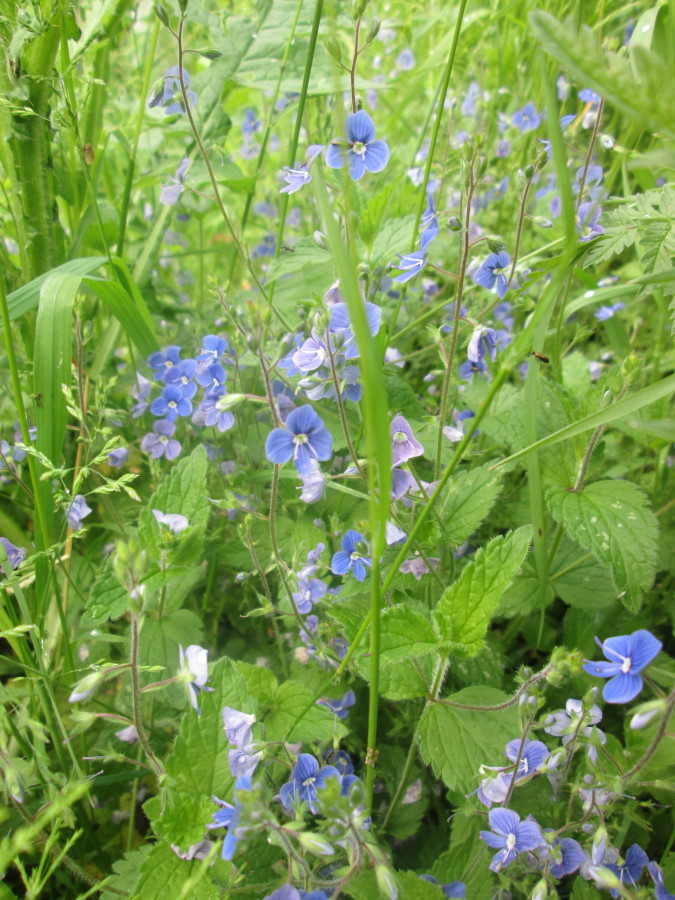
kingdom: Plantae
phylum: Tracheophyta
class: Magnoliopsida
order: Lamiales
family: Plantaginaceae
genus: Veronica
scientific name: Veronica chamaedrys
